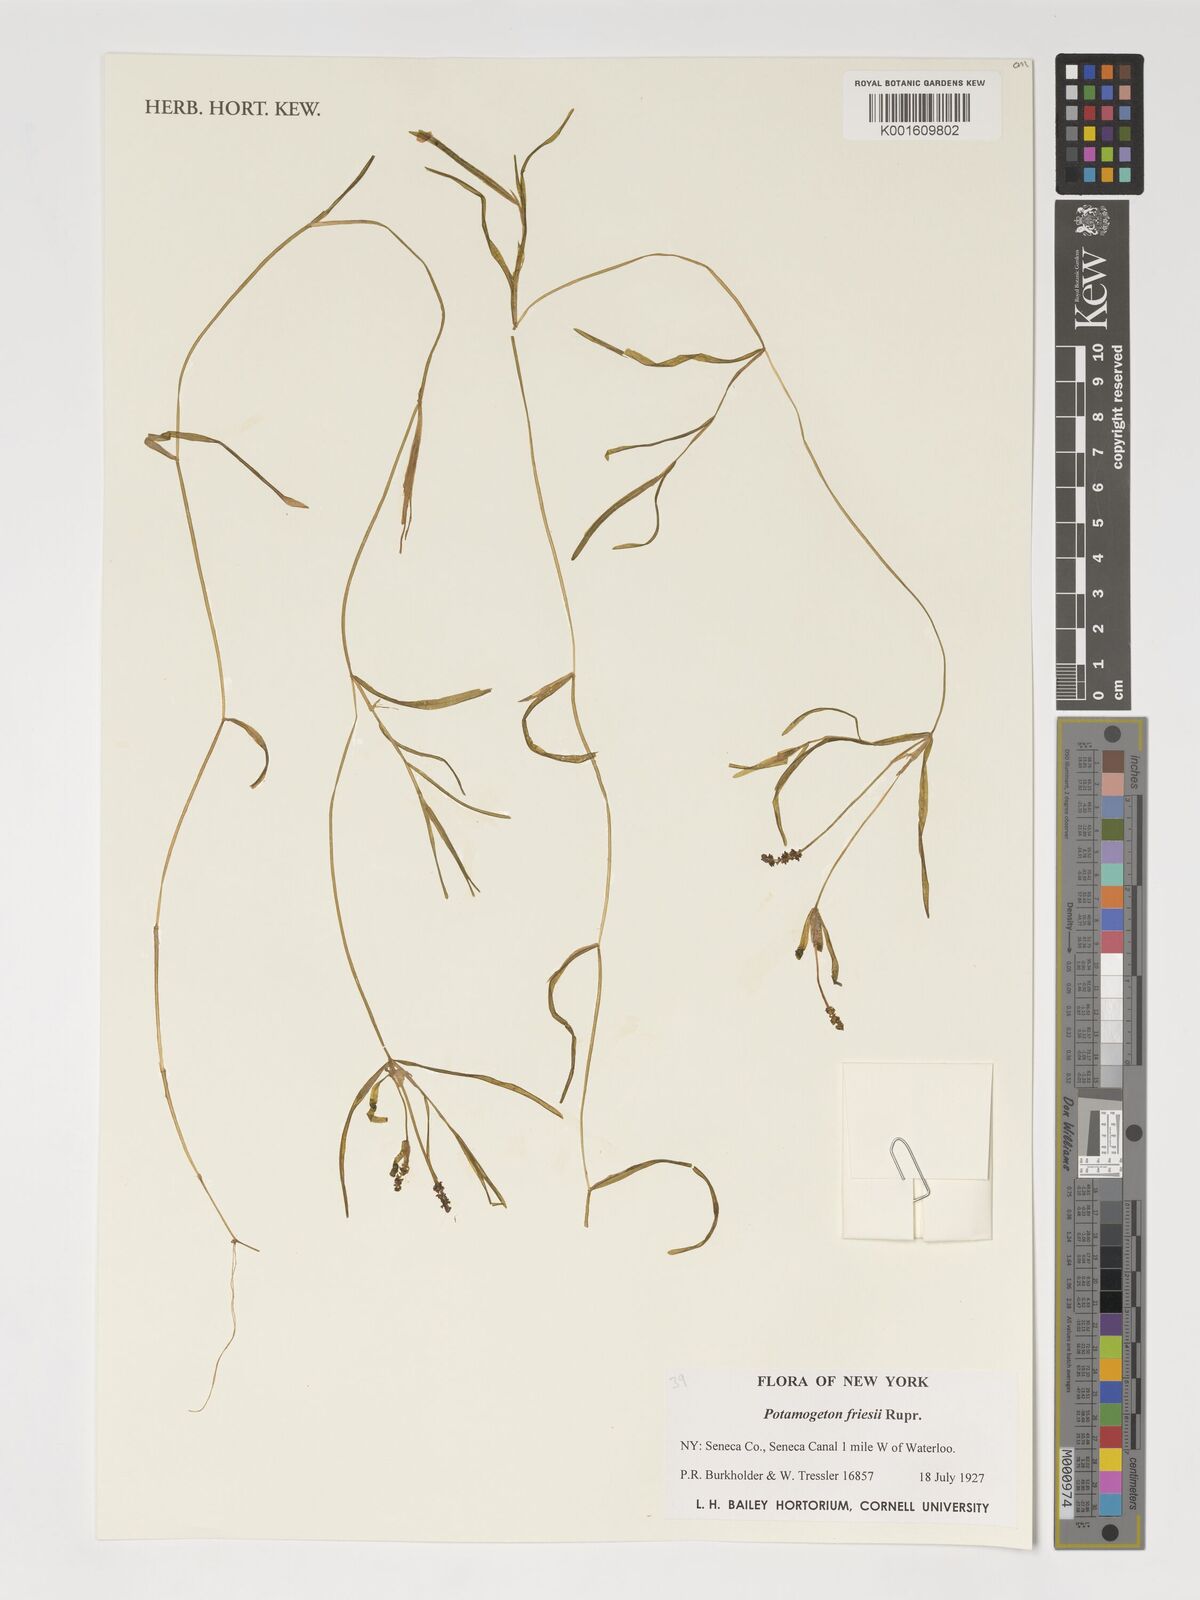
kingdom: Plantae
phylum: Tracheophyta
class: Liliopsida
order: Alismatales
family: Potamogetonaceae
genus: Potamogeton
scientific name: Potamogeton friesii
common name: Flat-stalked pondweed
